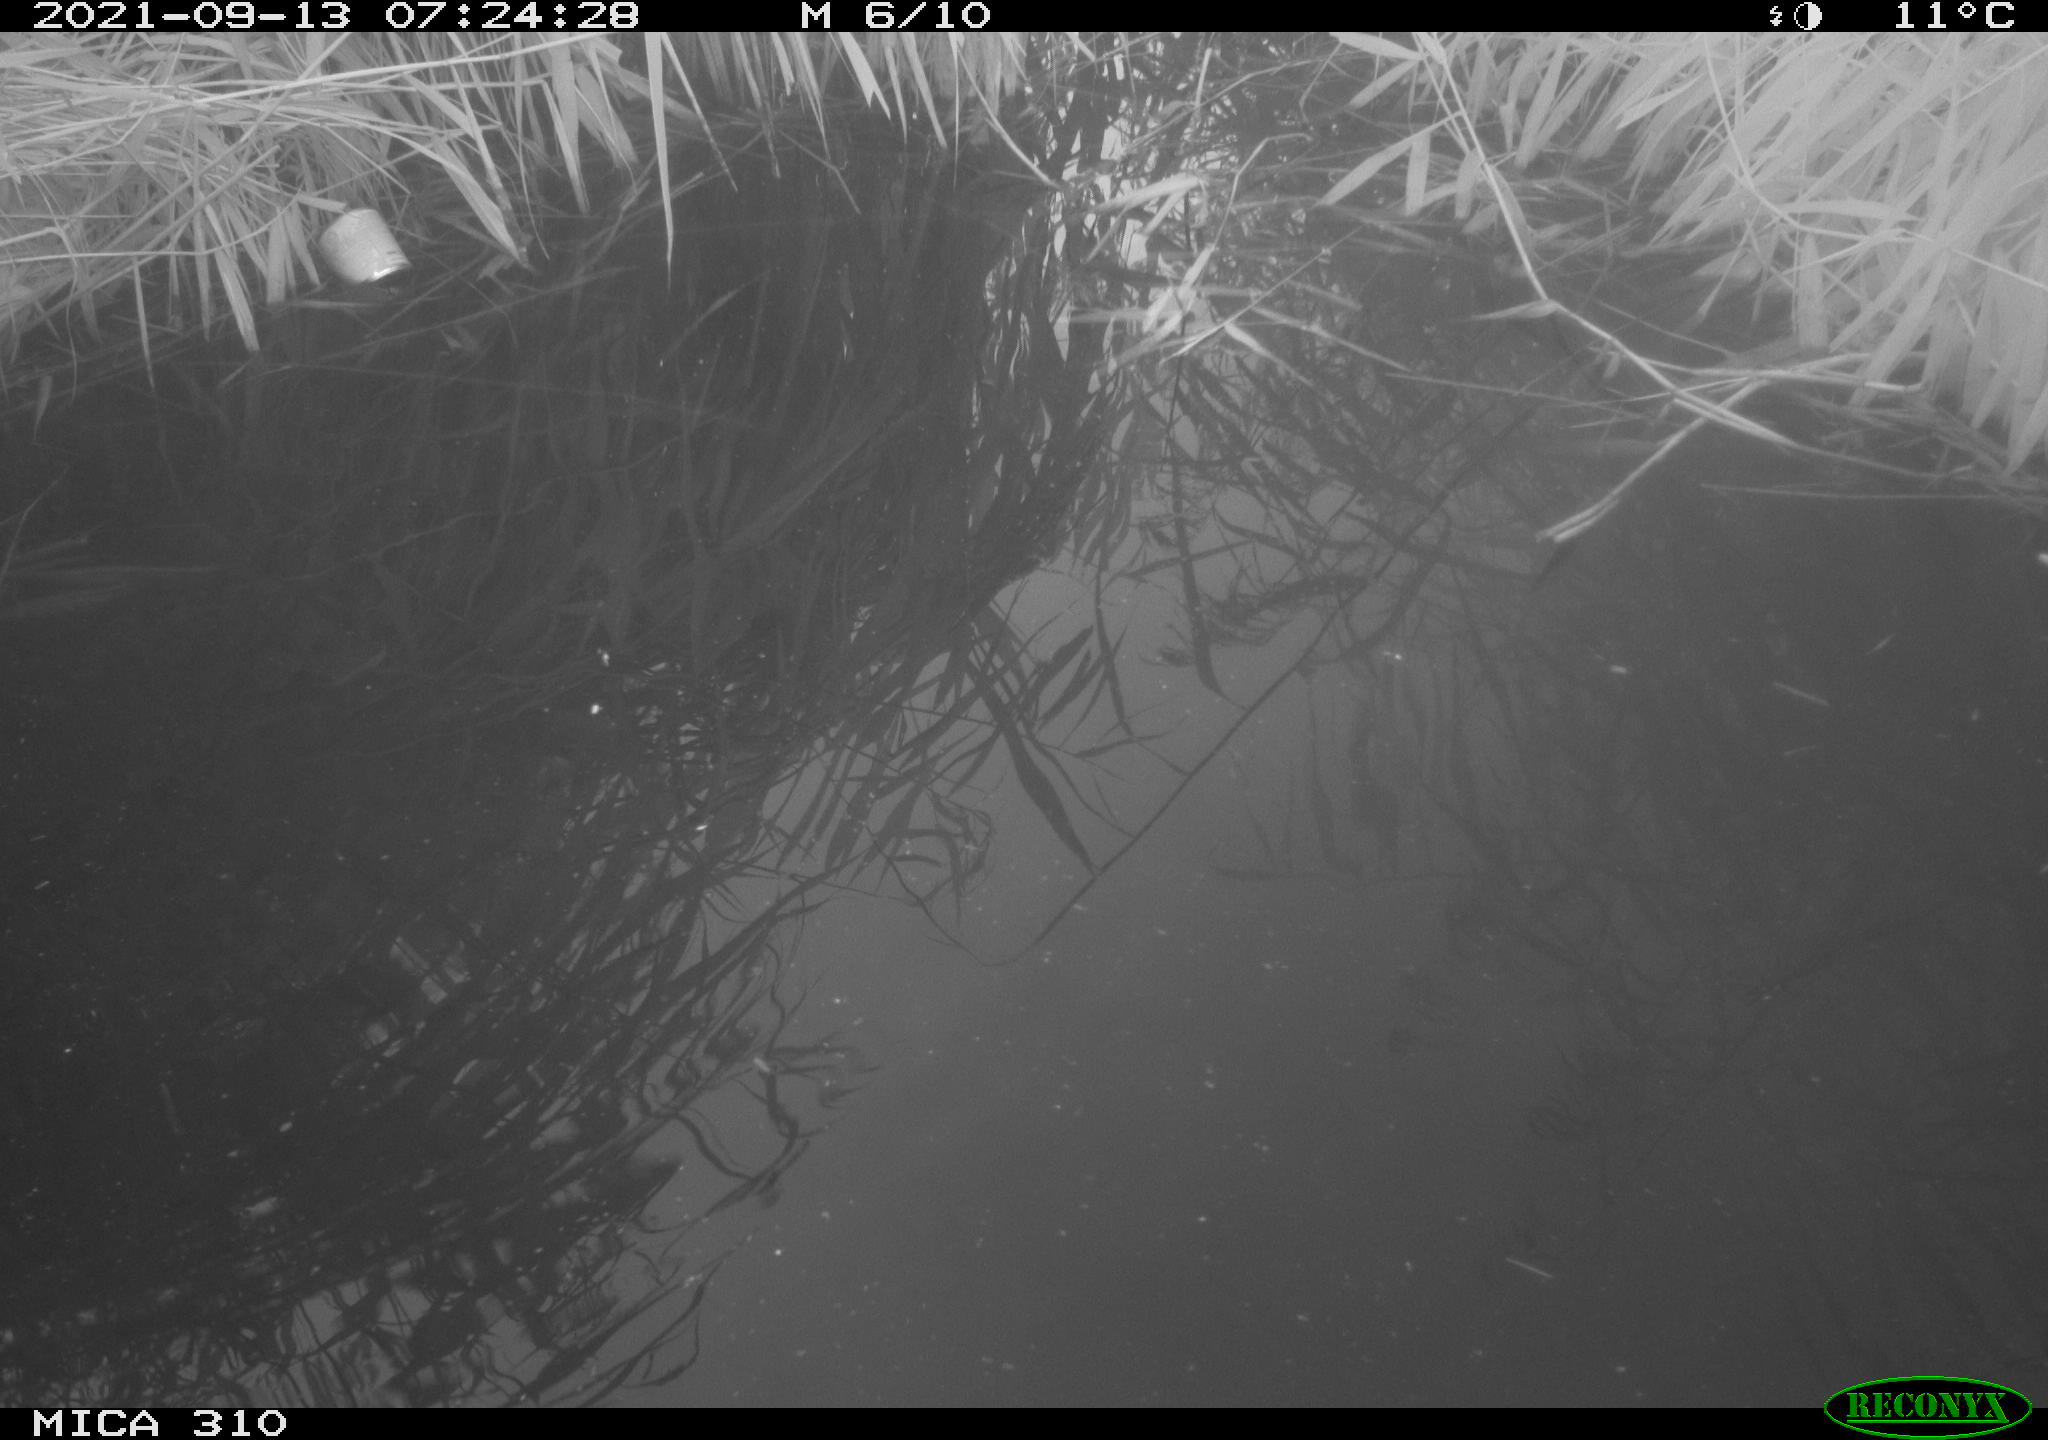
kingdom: Animalia
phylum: Chordata
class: Aves
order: Gruiformes
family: Rallidae
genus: Gallinula
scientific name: Gallinula chloropus
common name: Common moorhen
